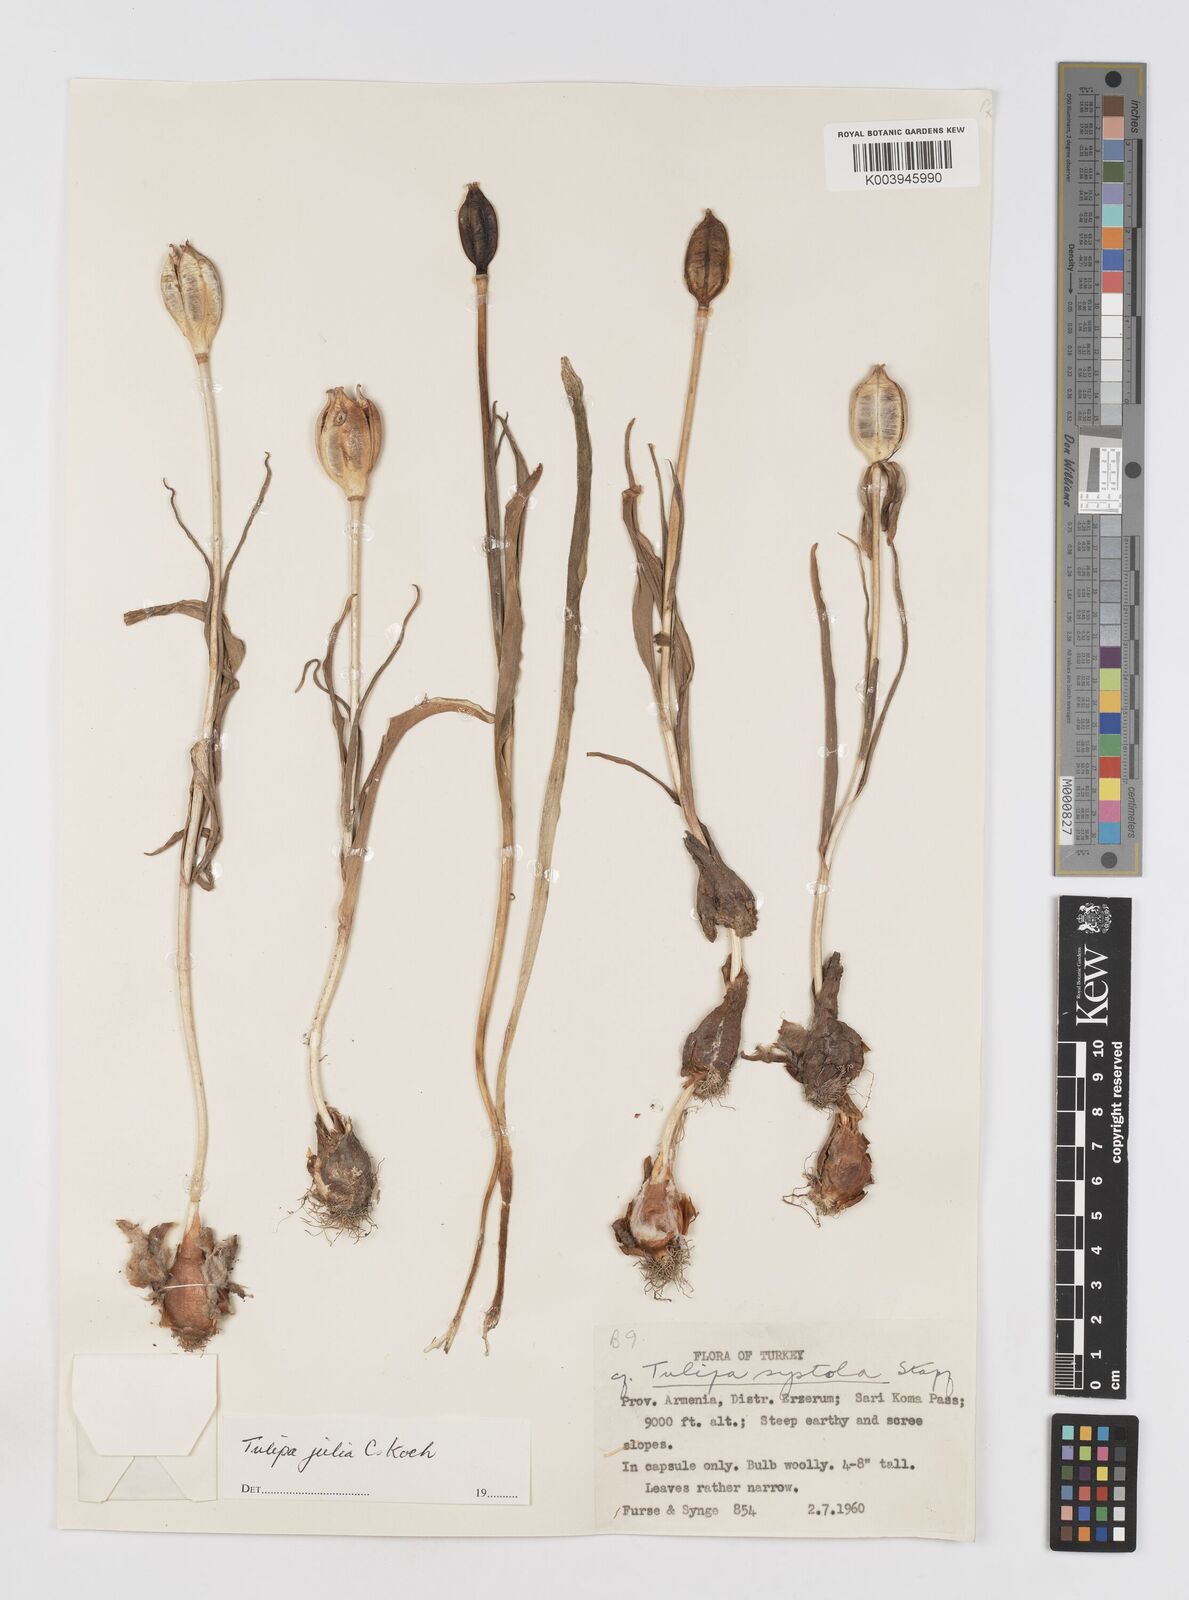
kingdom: Plantae
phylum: Tracheophyta
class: Liliopsida
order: Liliales
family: Liliaceae
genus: Tulipa
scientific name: Tulipa julia
